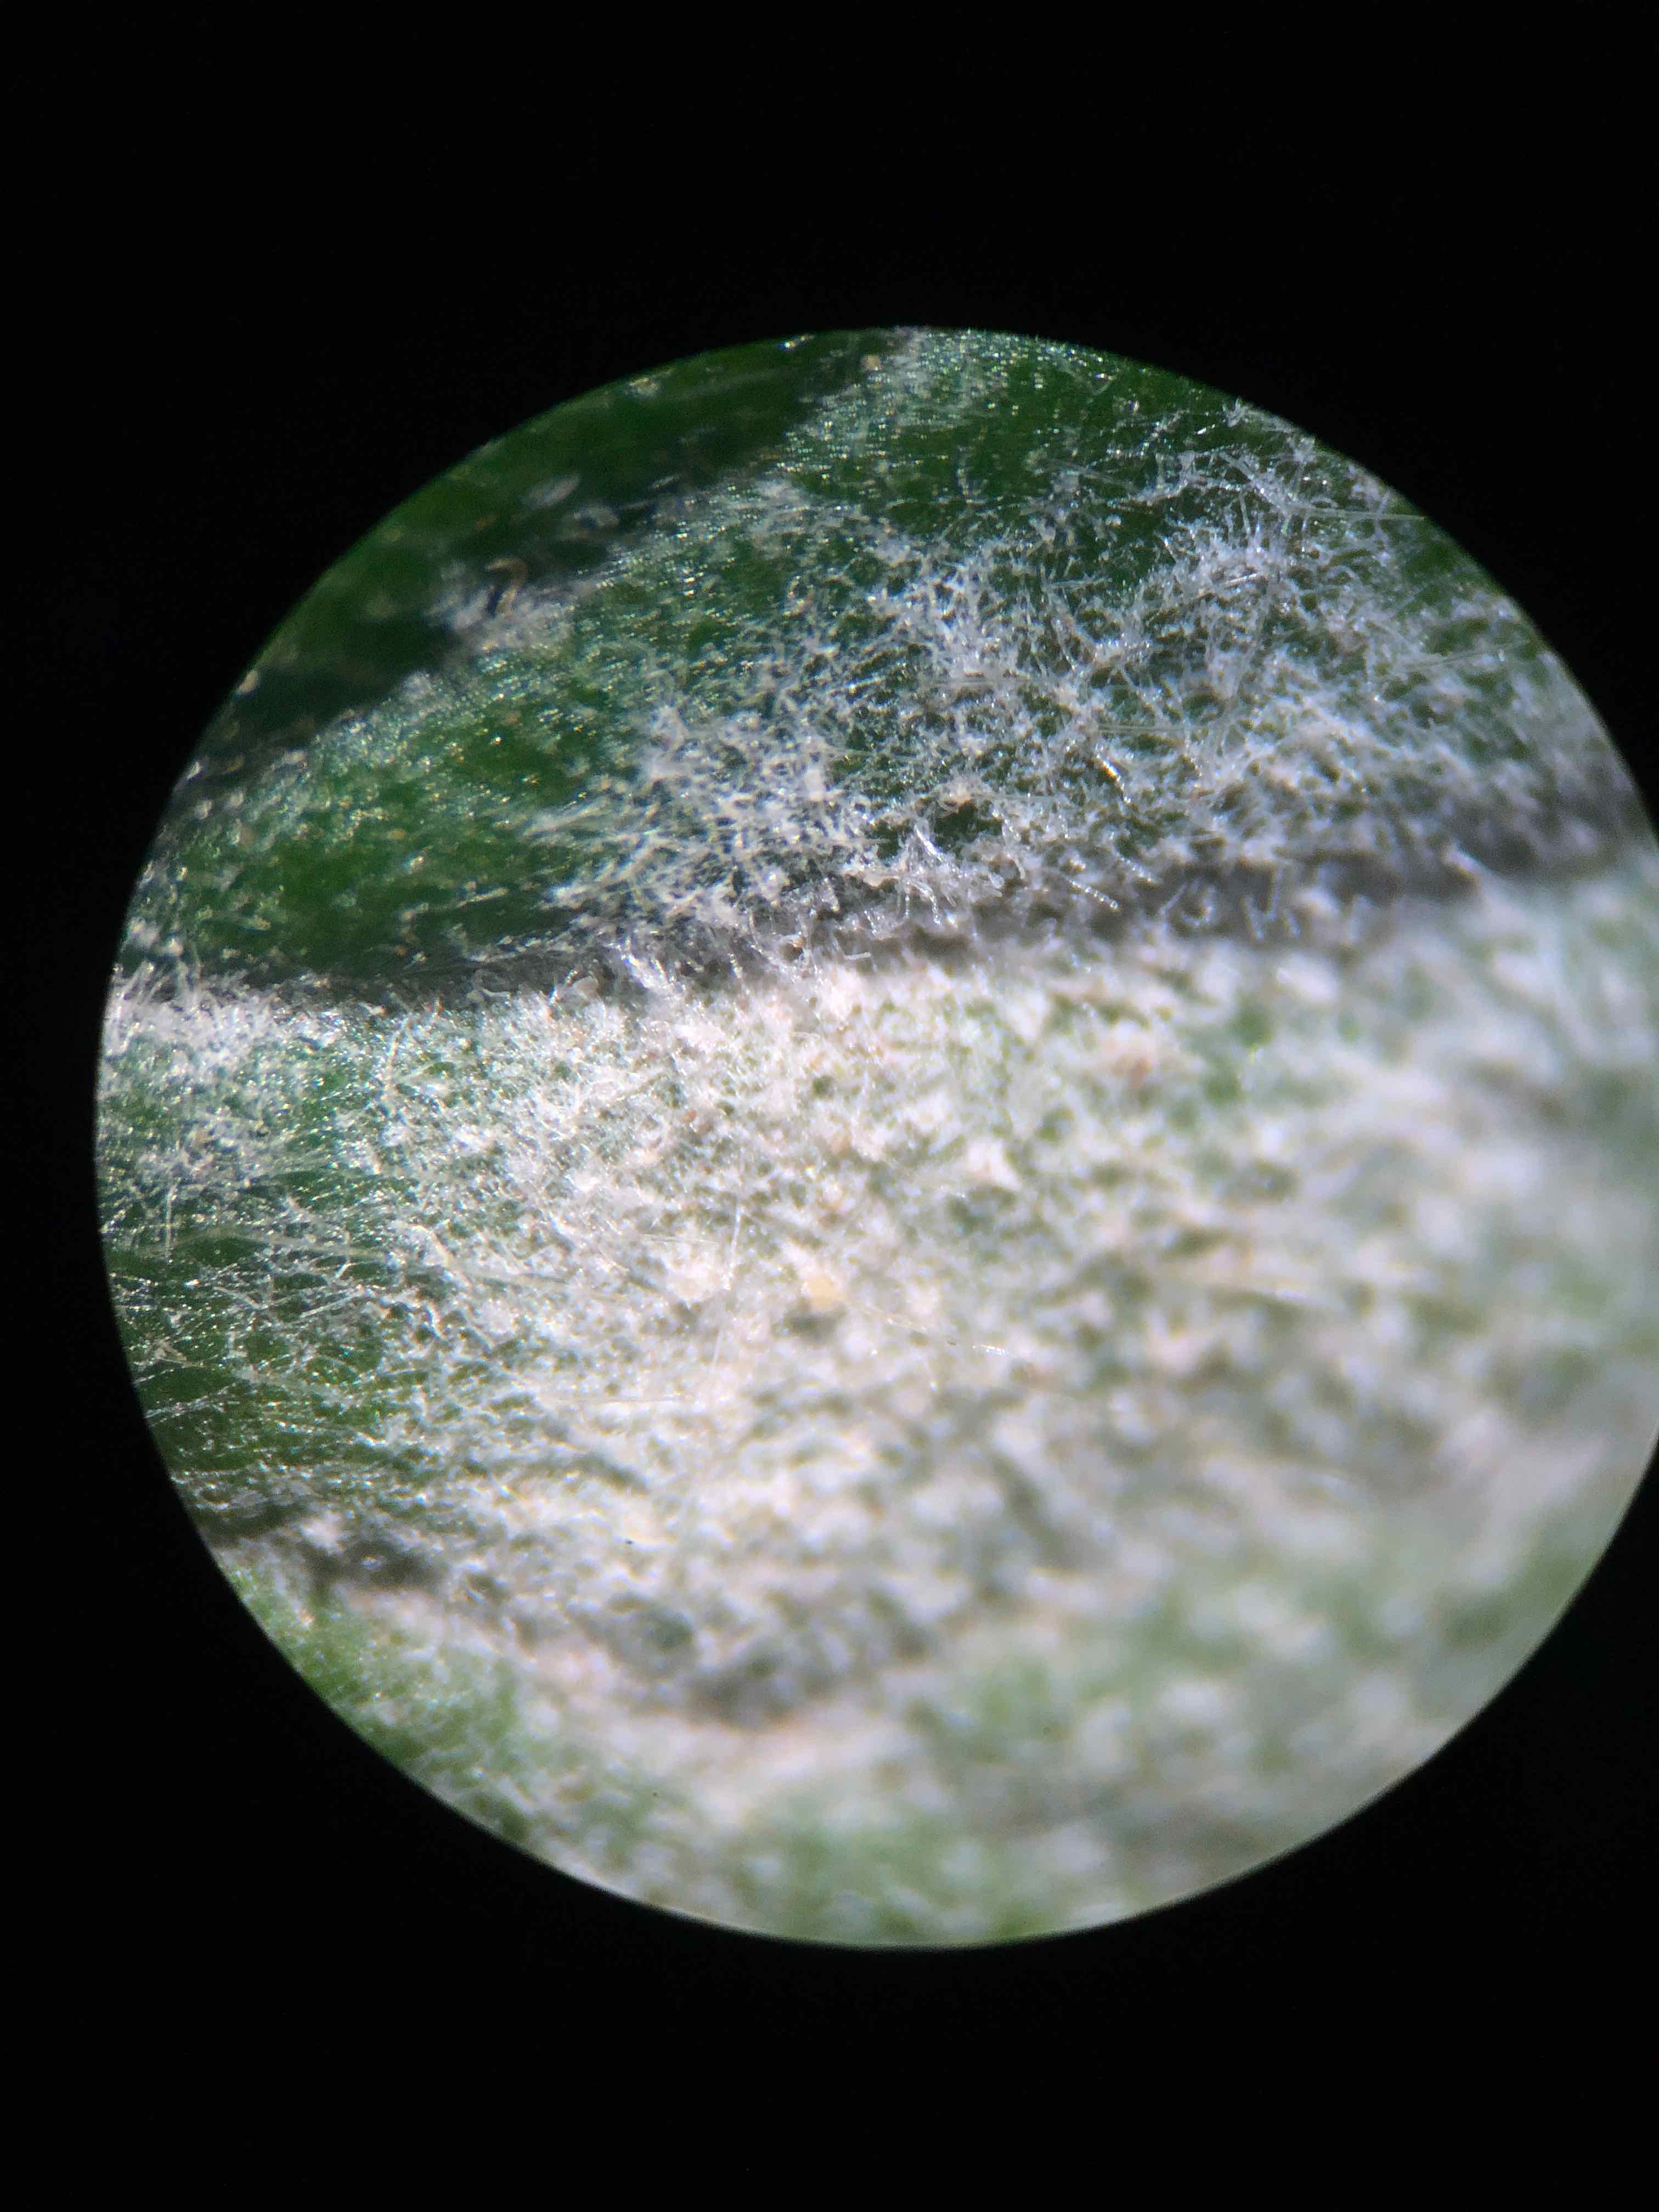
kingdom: Fungi
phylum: Ascomycota
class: Leotiomycetes
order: Helotiales
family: Erysiphaceae
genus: Podosphaera
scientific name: Podosphaera aphanis
